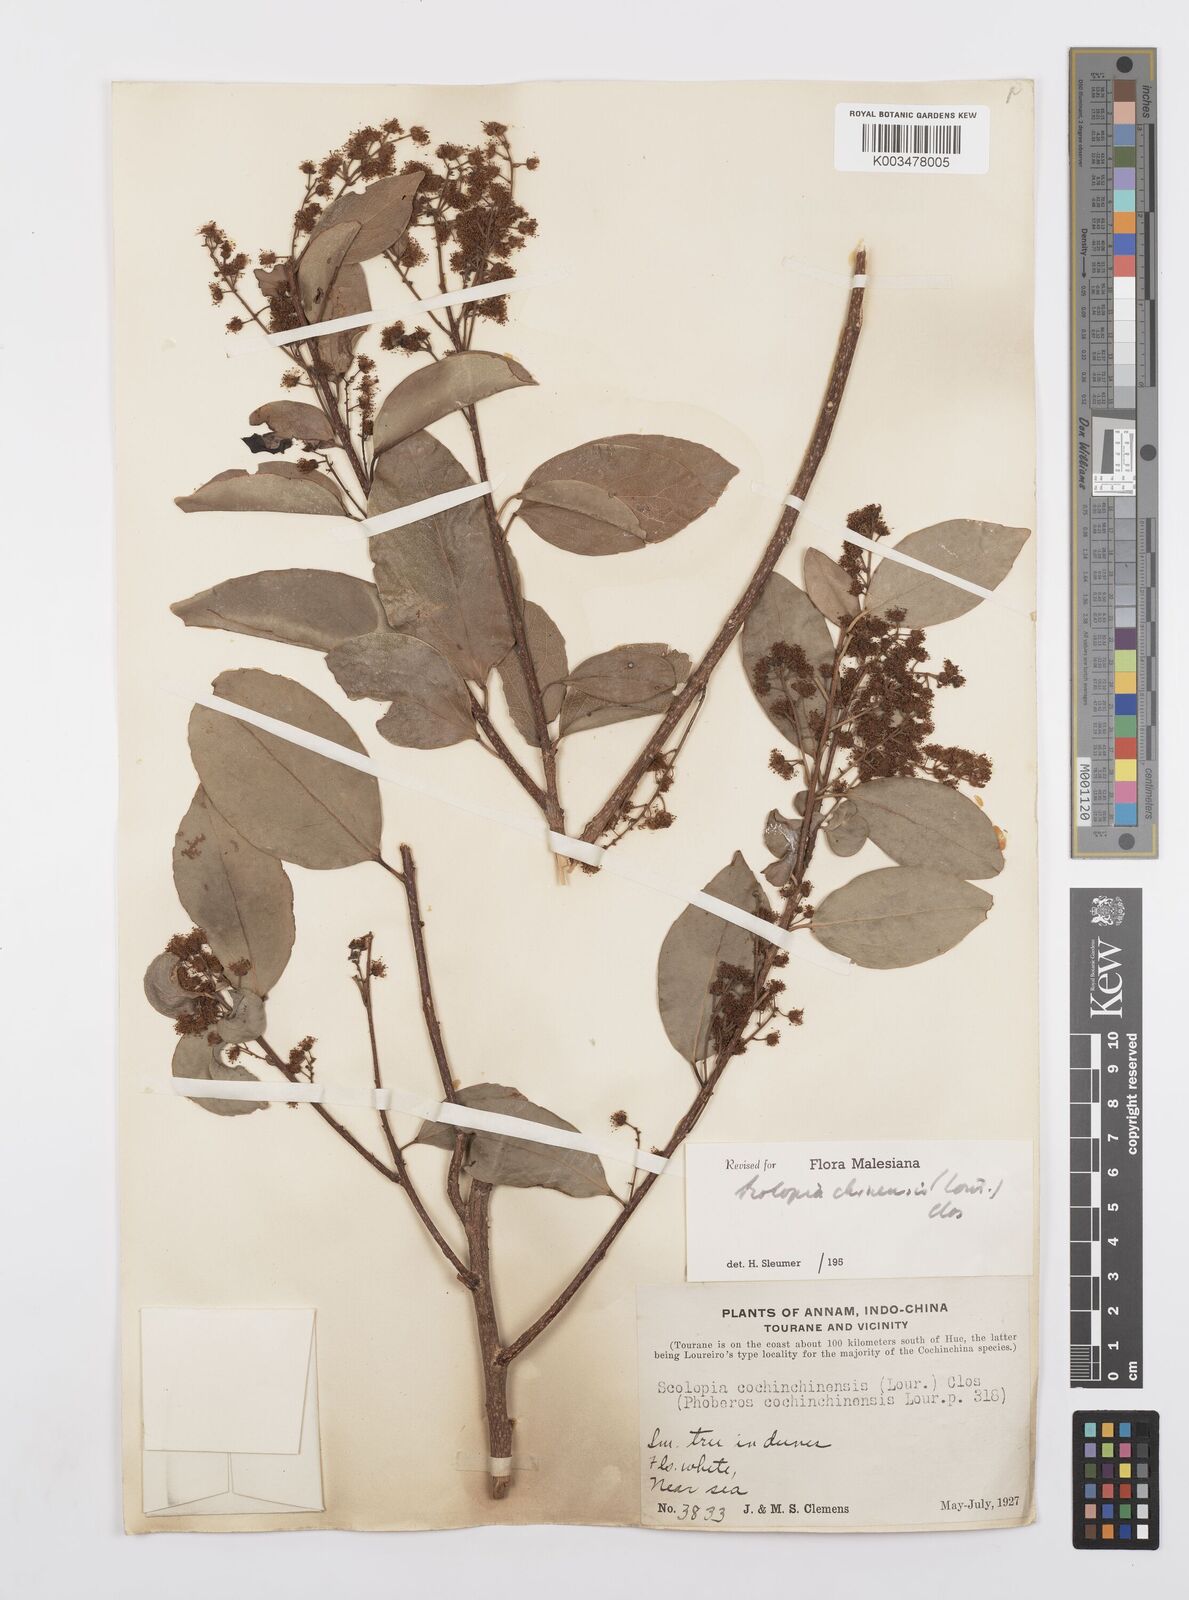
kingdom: Plantae
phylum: Tracheophyta
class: Magnoliopsida
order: Malpighiales
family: Salicaceae
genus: Scolopia
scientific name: Scolopia chinensis
